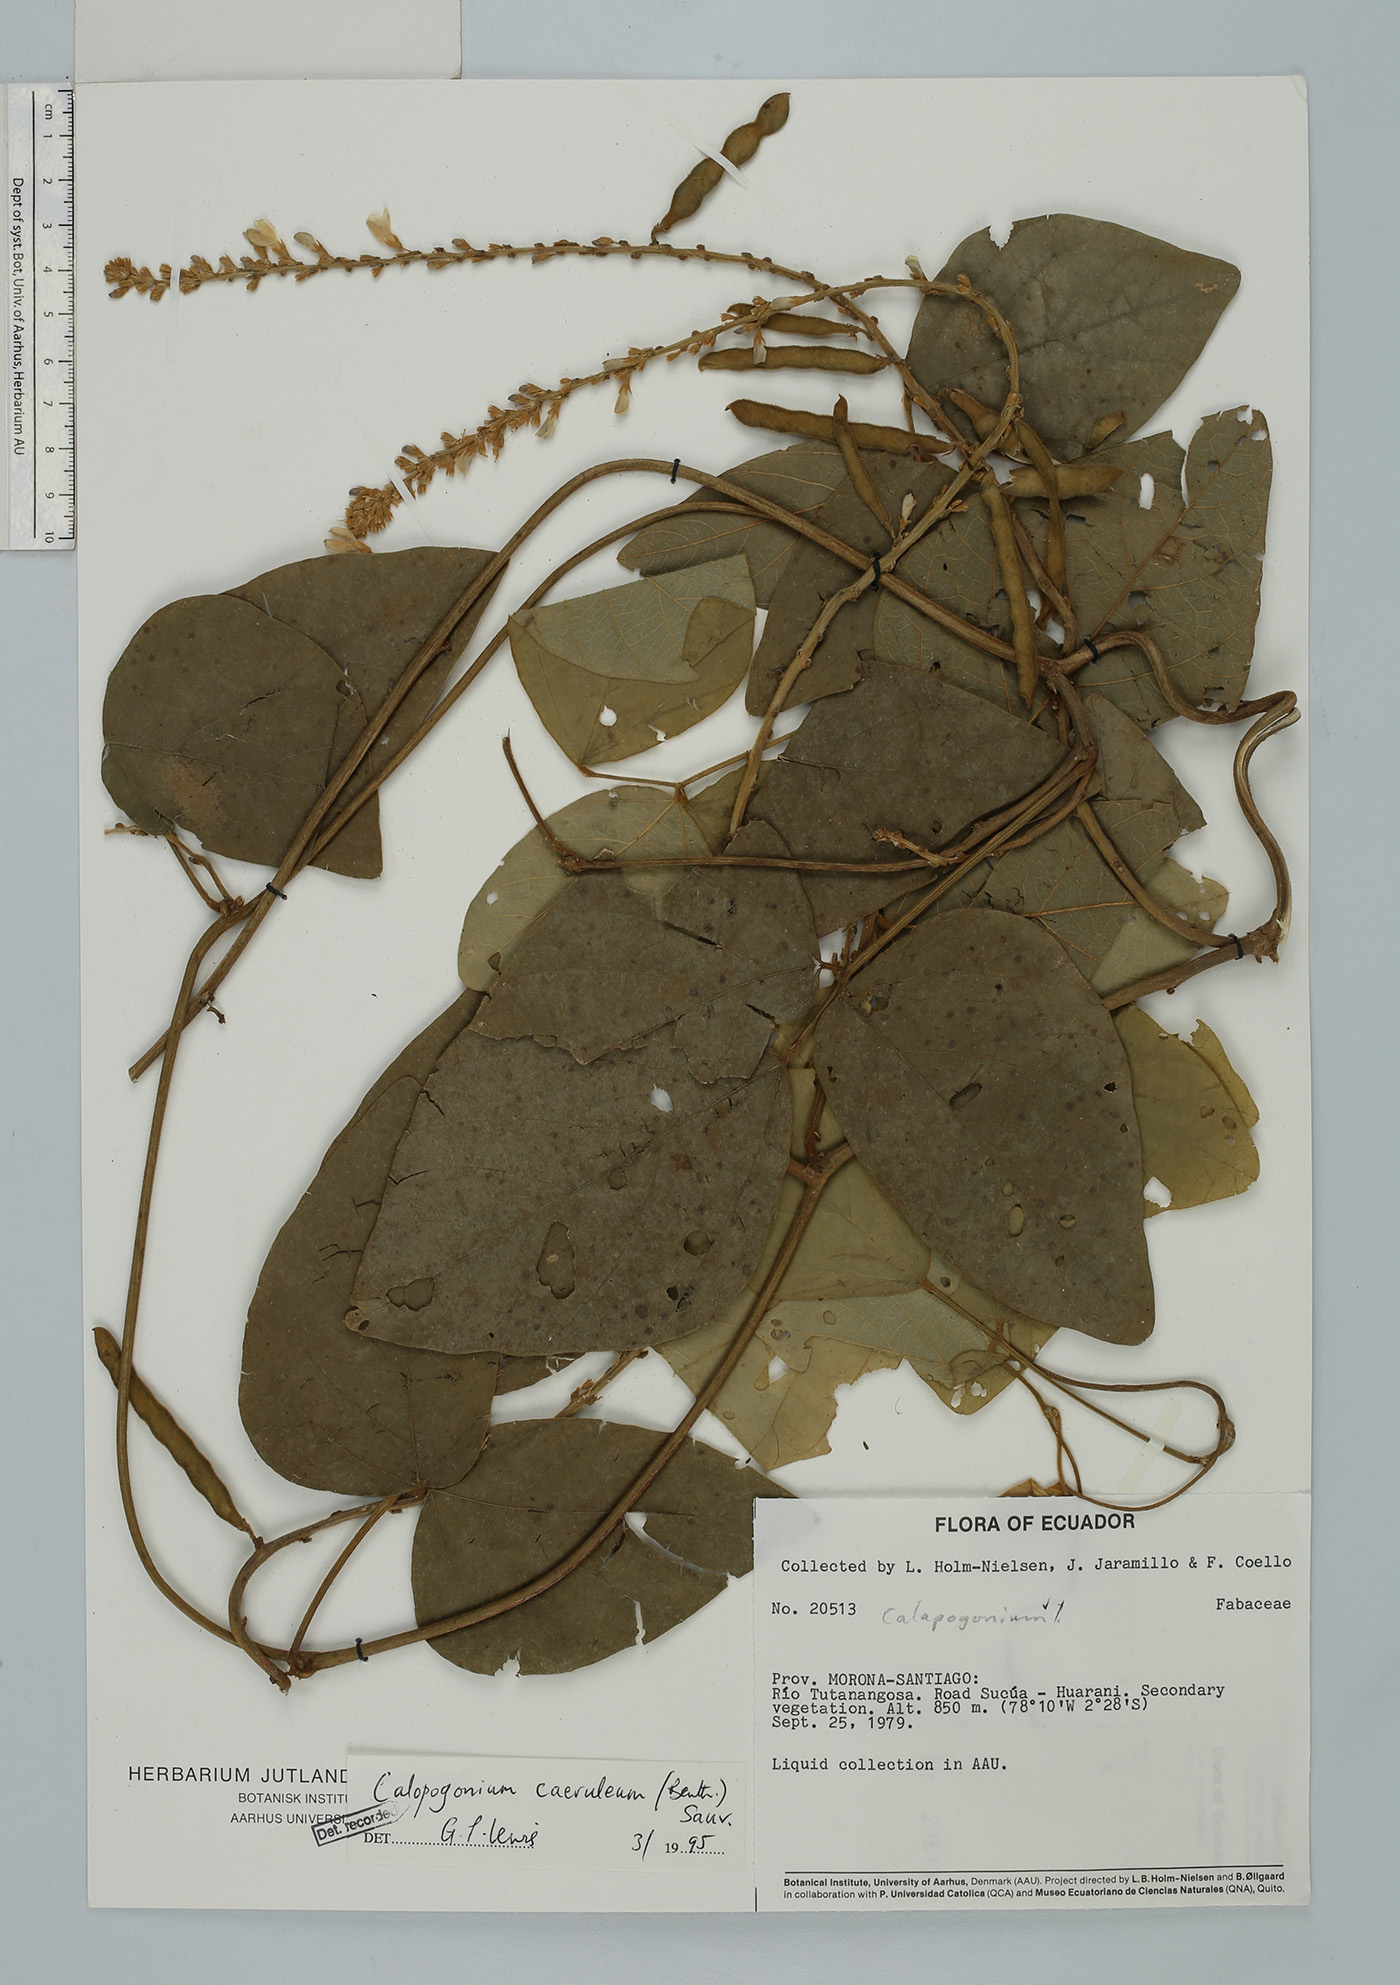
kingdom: Plantae
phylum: Tracheophyta
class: Magnoliopsida
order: Fabales
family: Fabaceae
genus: Calopogonium
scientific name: Calopogonium caeruleum
